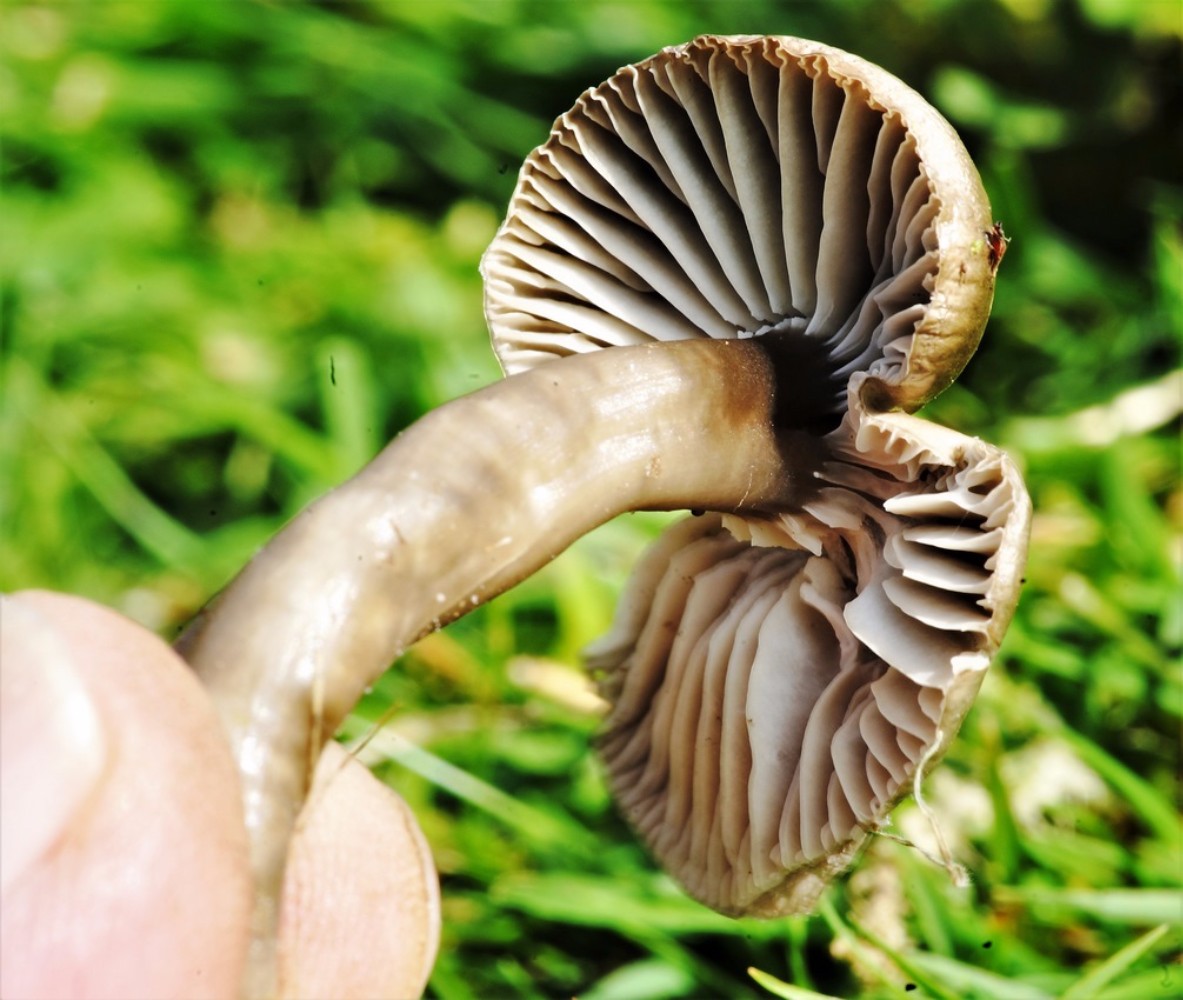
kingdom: Fungi
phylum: Basidiomycota
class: Agaricomycetes
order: Agaricales
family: Hygrophoraceae
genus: Gliophorus
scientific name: Gliophorus irrigatus
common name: slimet vokshat
